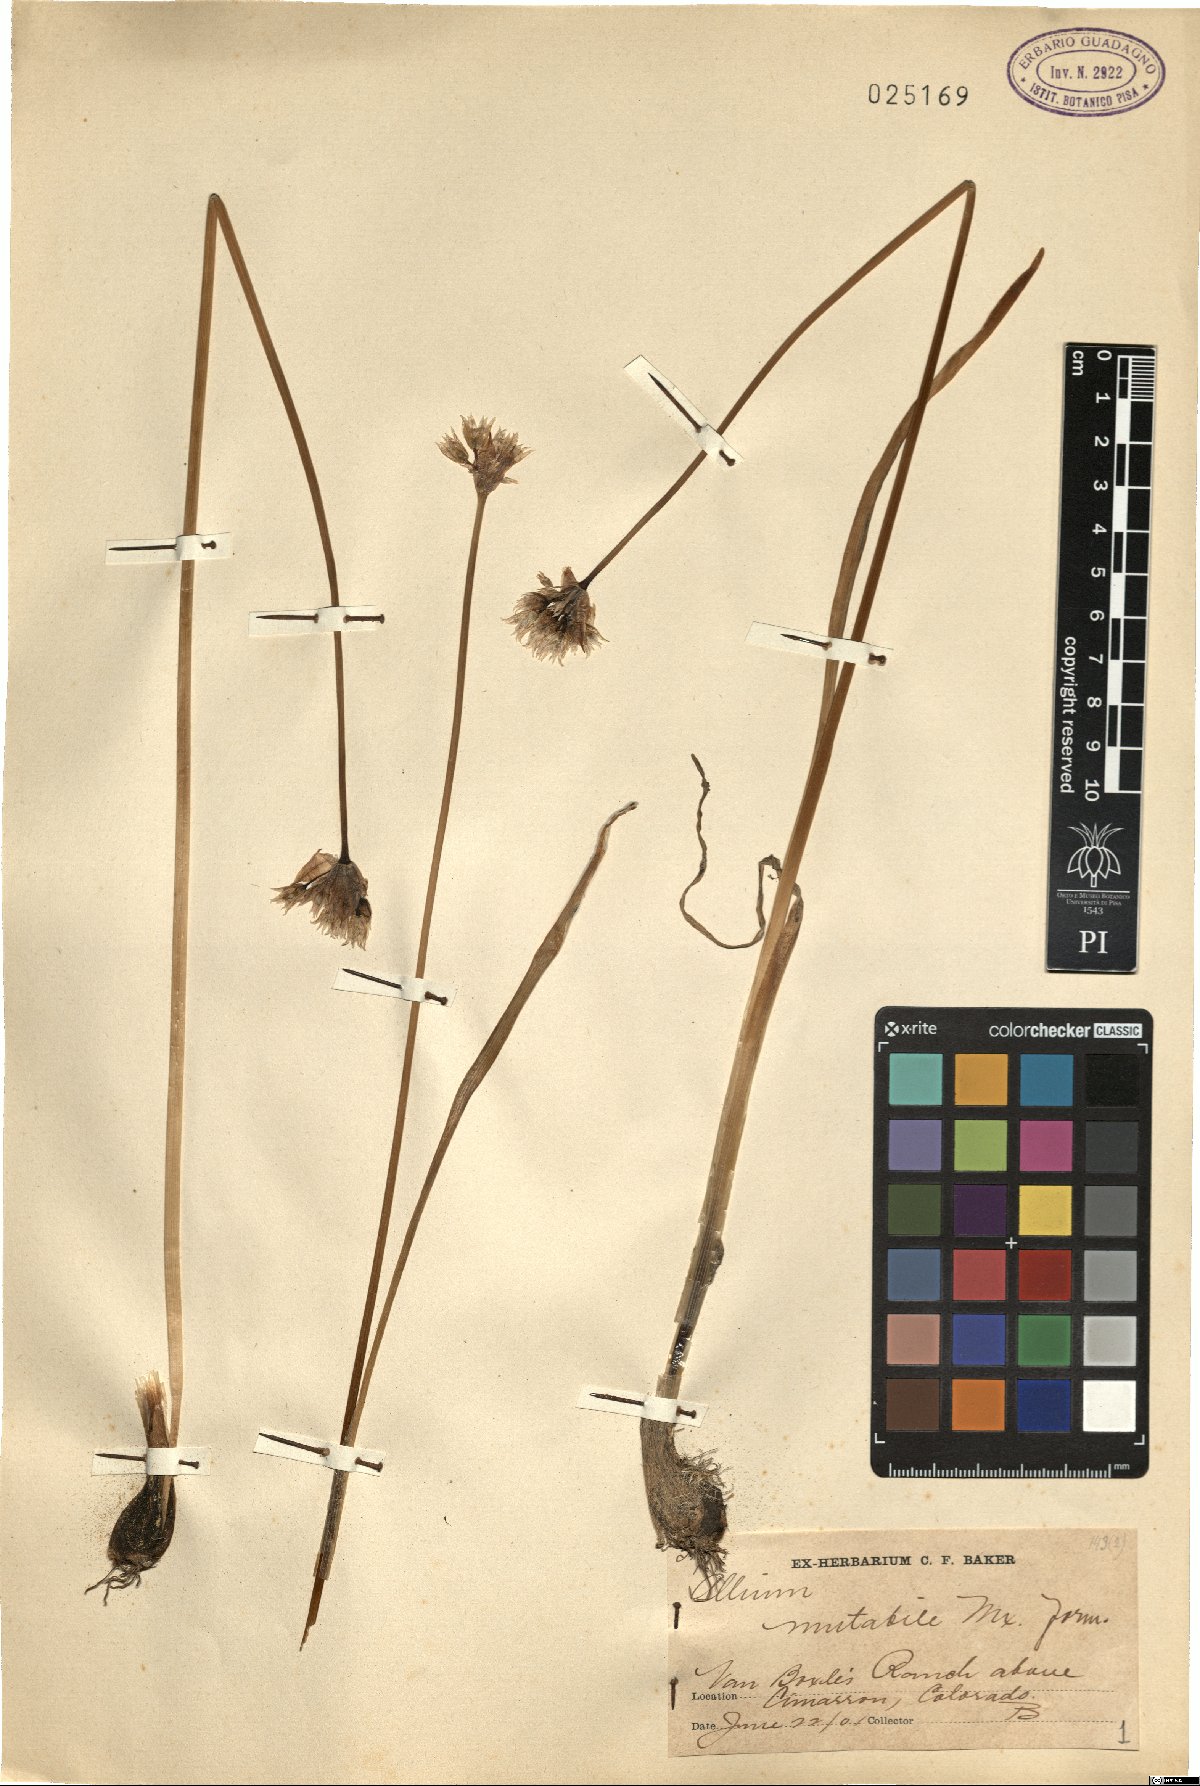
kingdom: Plantae
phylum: Tracheophyta
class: Liliopsida
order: Asparagales
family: Amaryllidaceae
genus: Allium
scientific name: Allium canadense
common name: Meadow garlic
